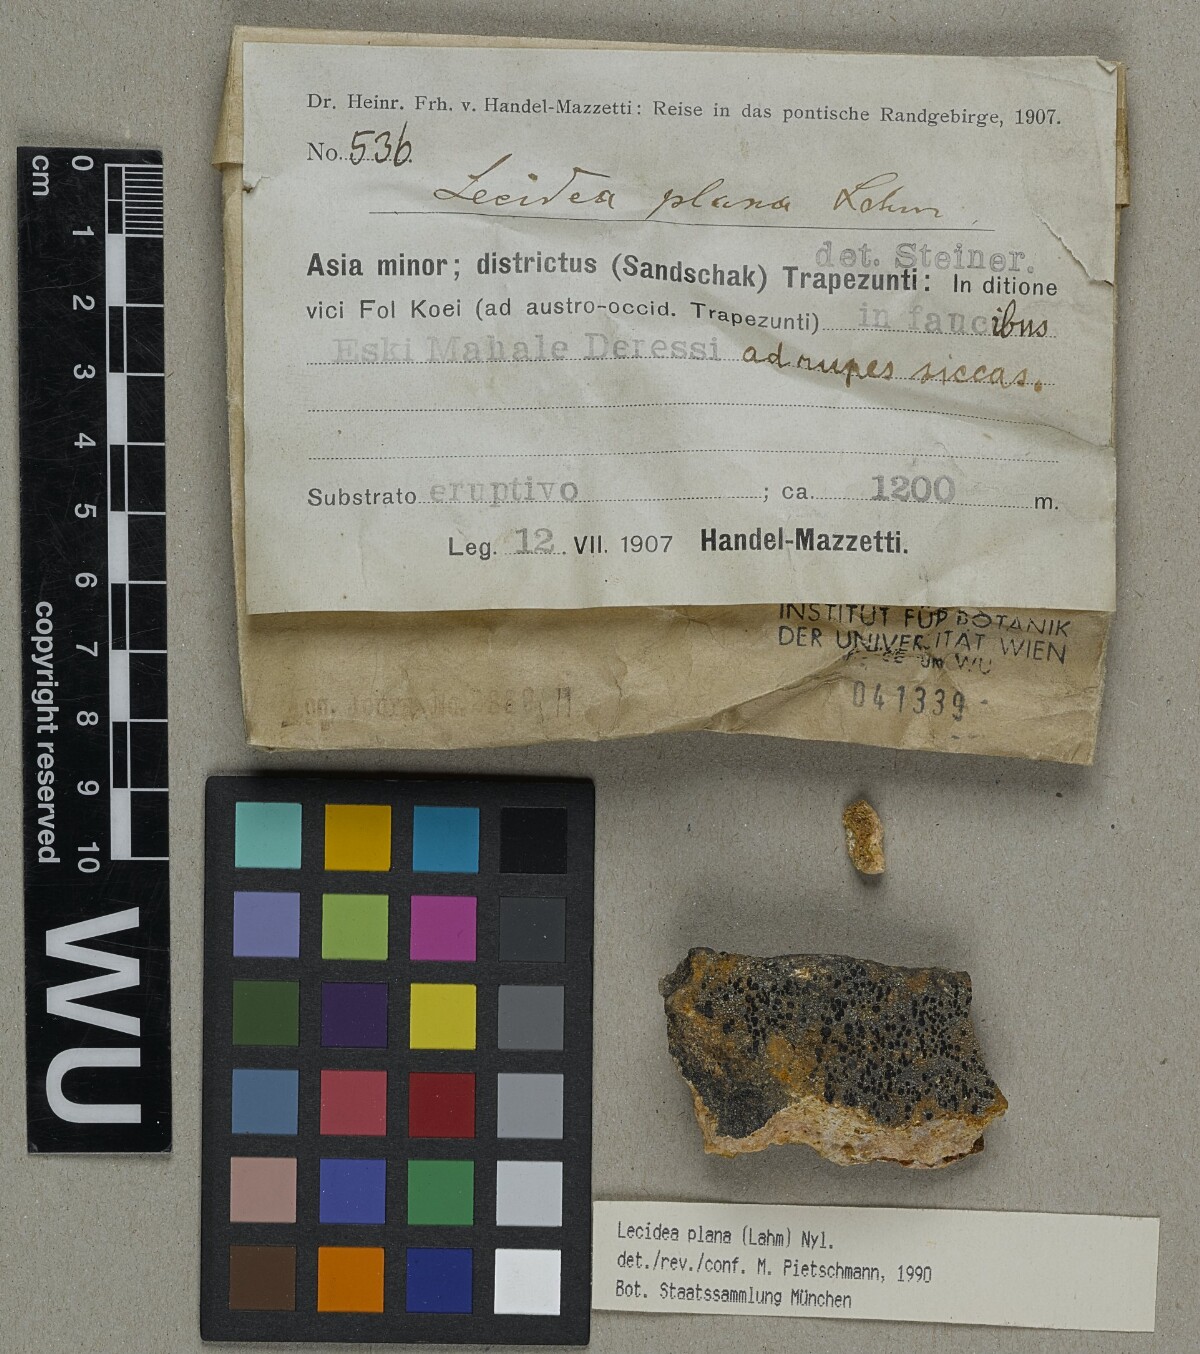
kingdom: Fungi
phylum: Ascomycota
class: Lecanoromycetes
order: Lecideales
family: Lecideaceae
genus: Lecidea
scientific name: Lecidea plana
